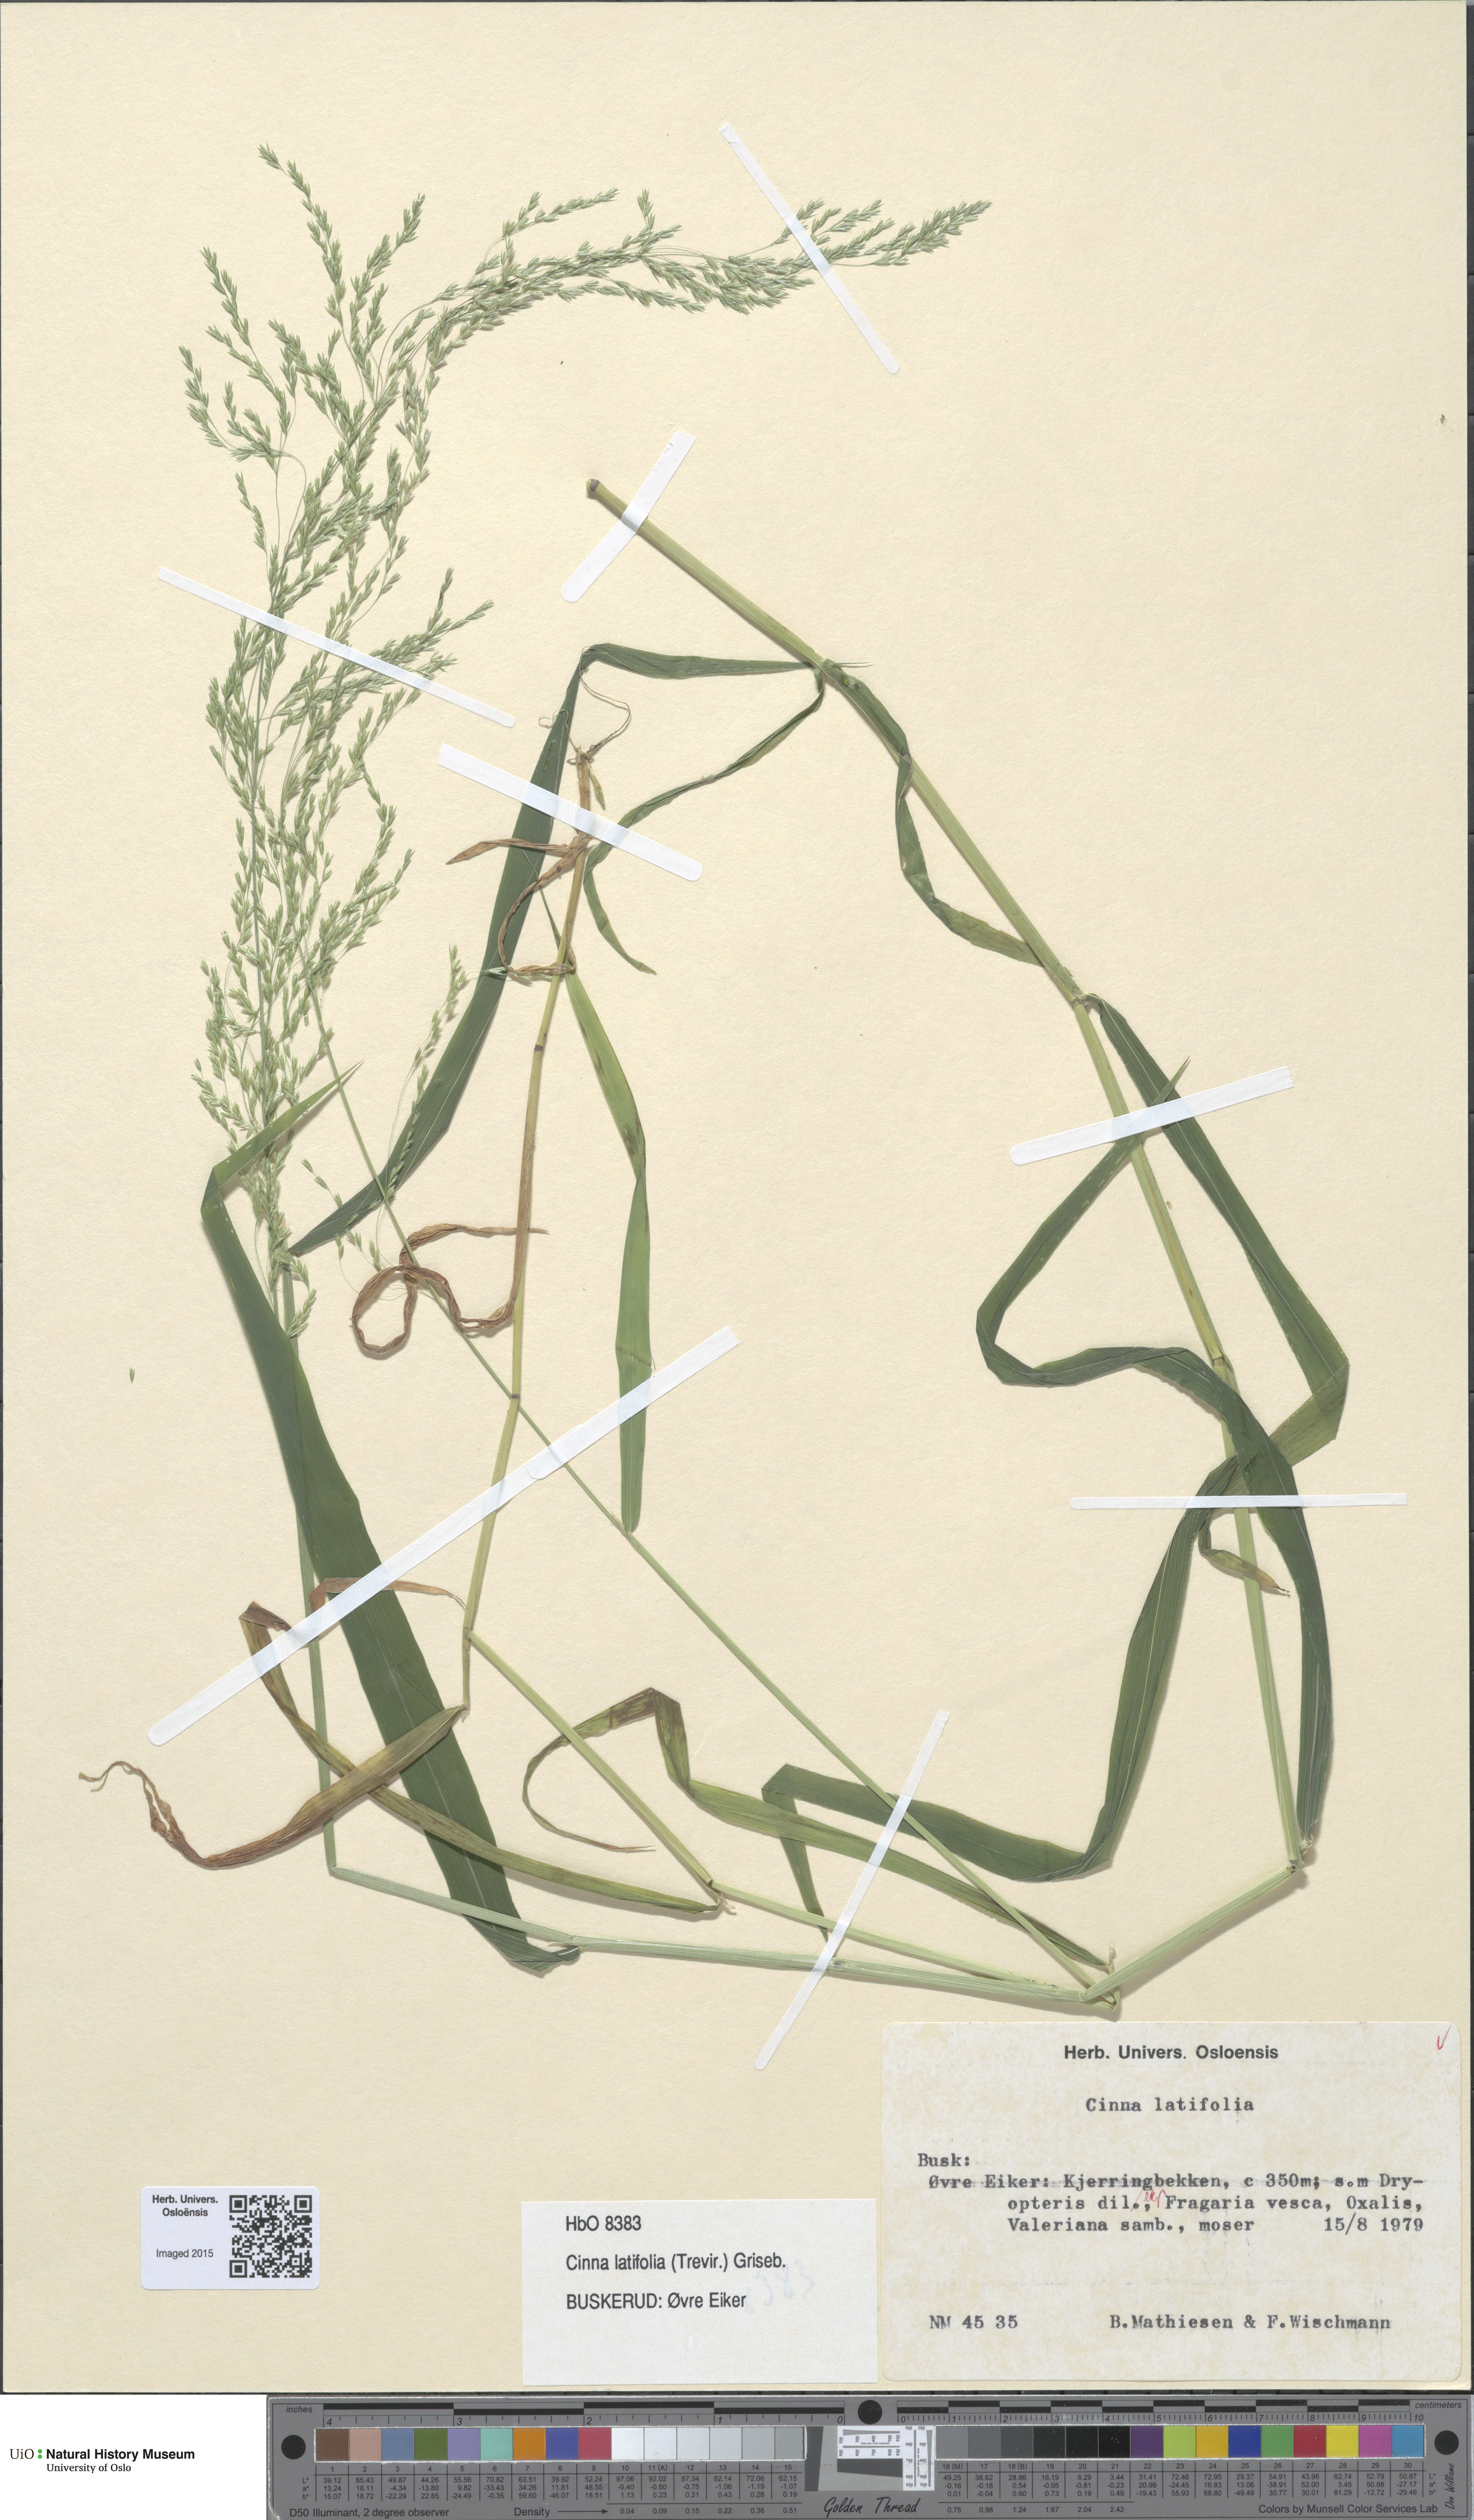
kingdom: Plantae
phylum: Tracheophyta
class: Liliopsida
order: Poales
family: Poaceae
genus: Cinna
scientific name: Cinna latifolia
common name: Drooping woodreed
